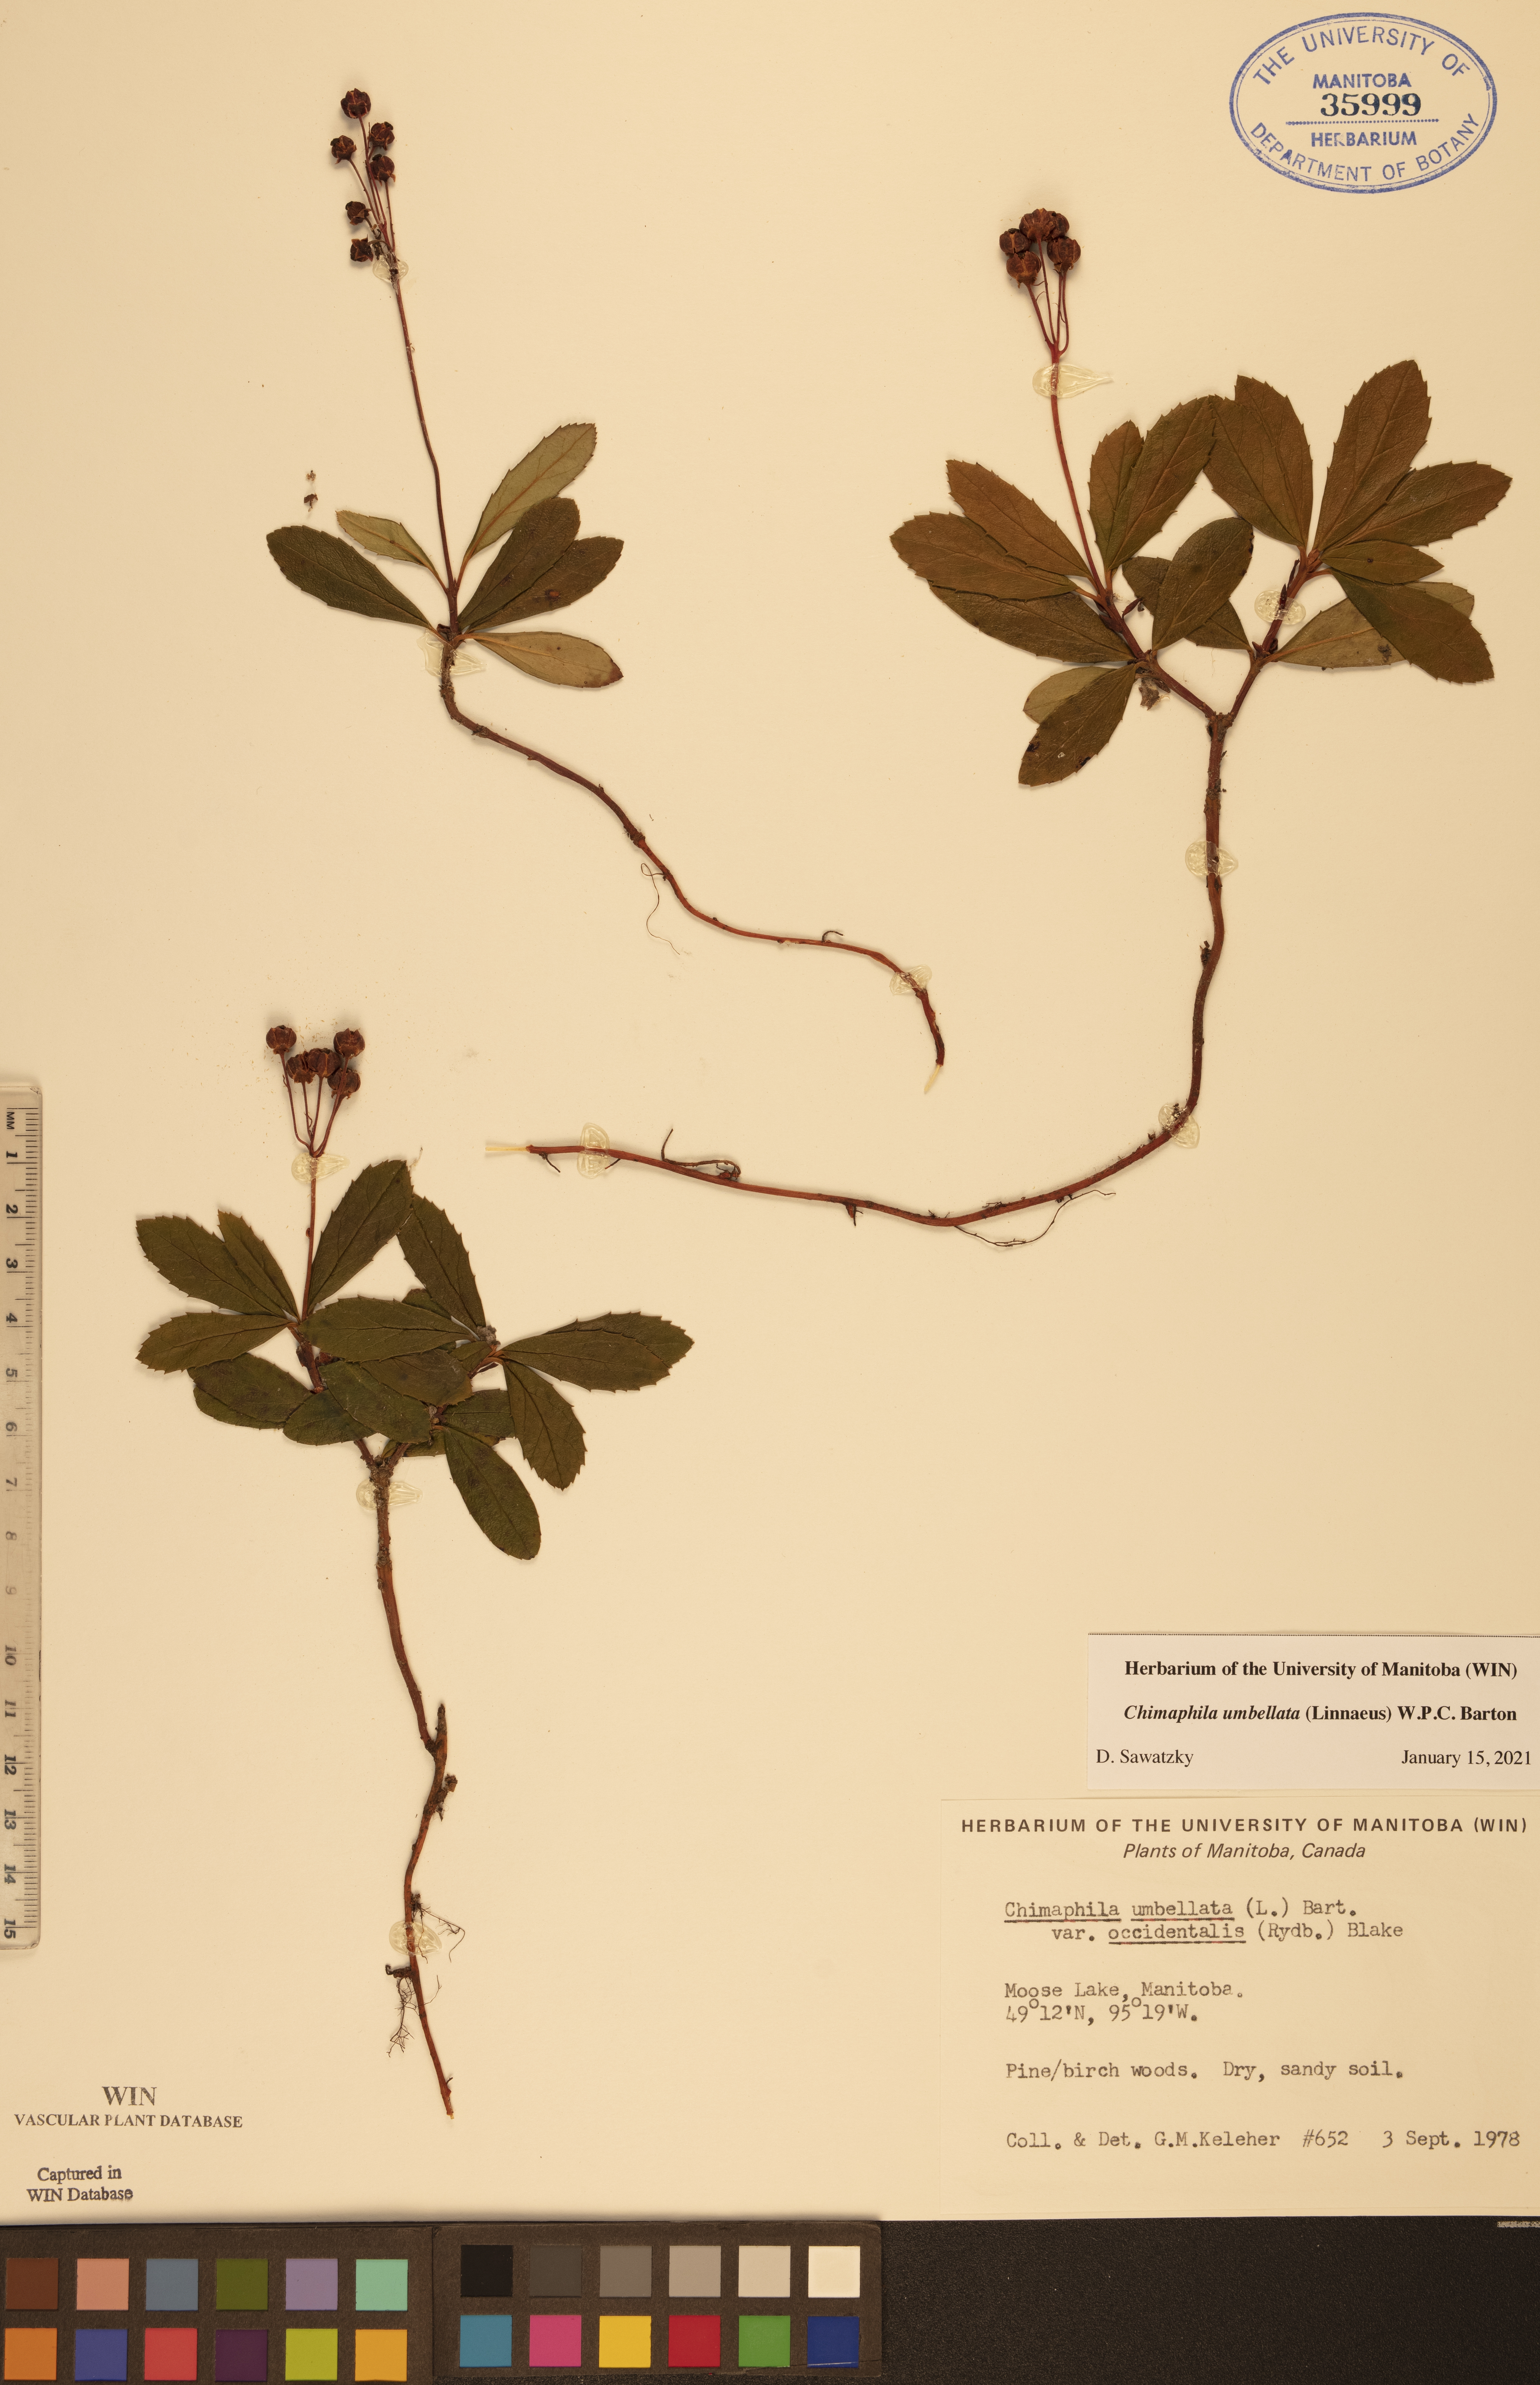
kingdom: Plantae
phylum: Tracheophyta
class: Magnoliopsida
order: Ericales
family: Ericaceae
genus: Chimaphila
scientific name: Chimaphila umbellata
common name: Pipsissewa
